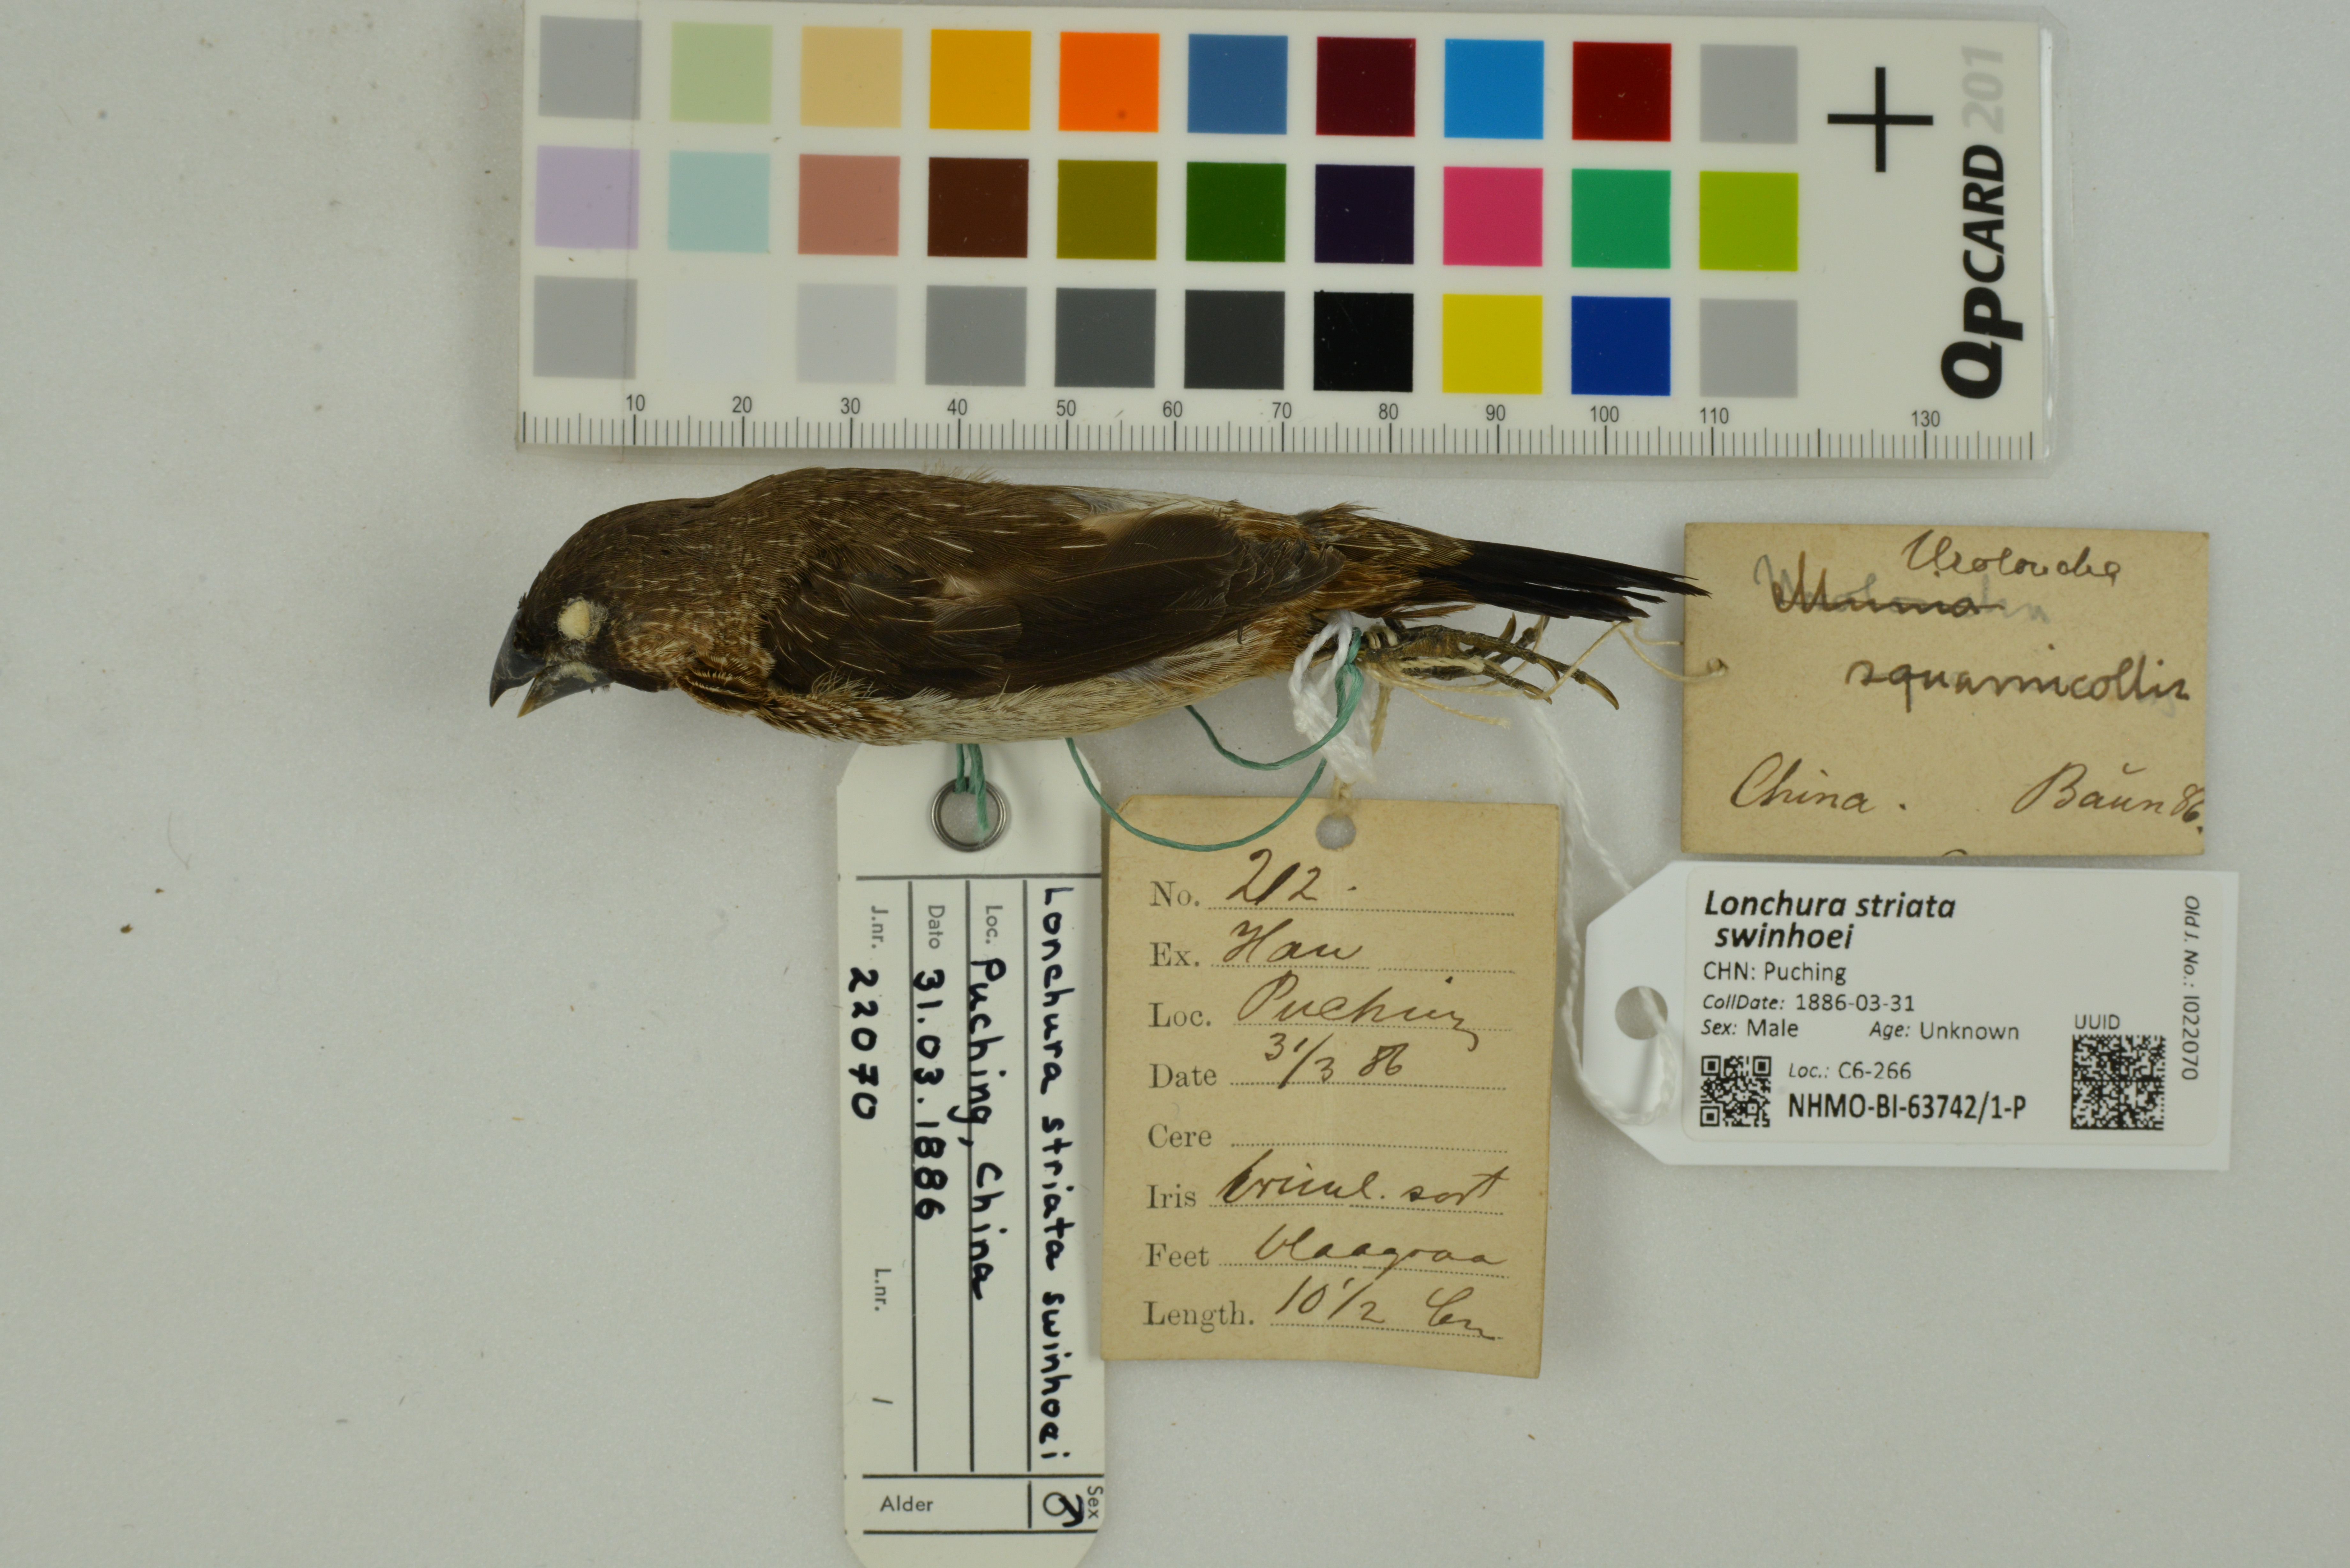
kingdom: Animalia
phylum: Chordata
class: Aves
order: Passeriformes
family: Estrildidae
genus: Lonchura
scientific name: Lonchura striata
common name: White-rumped munia
